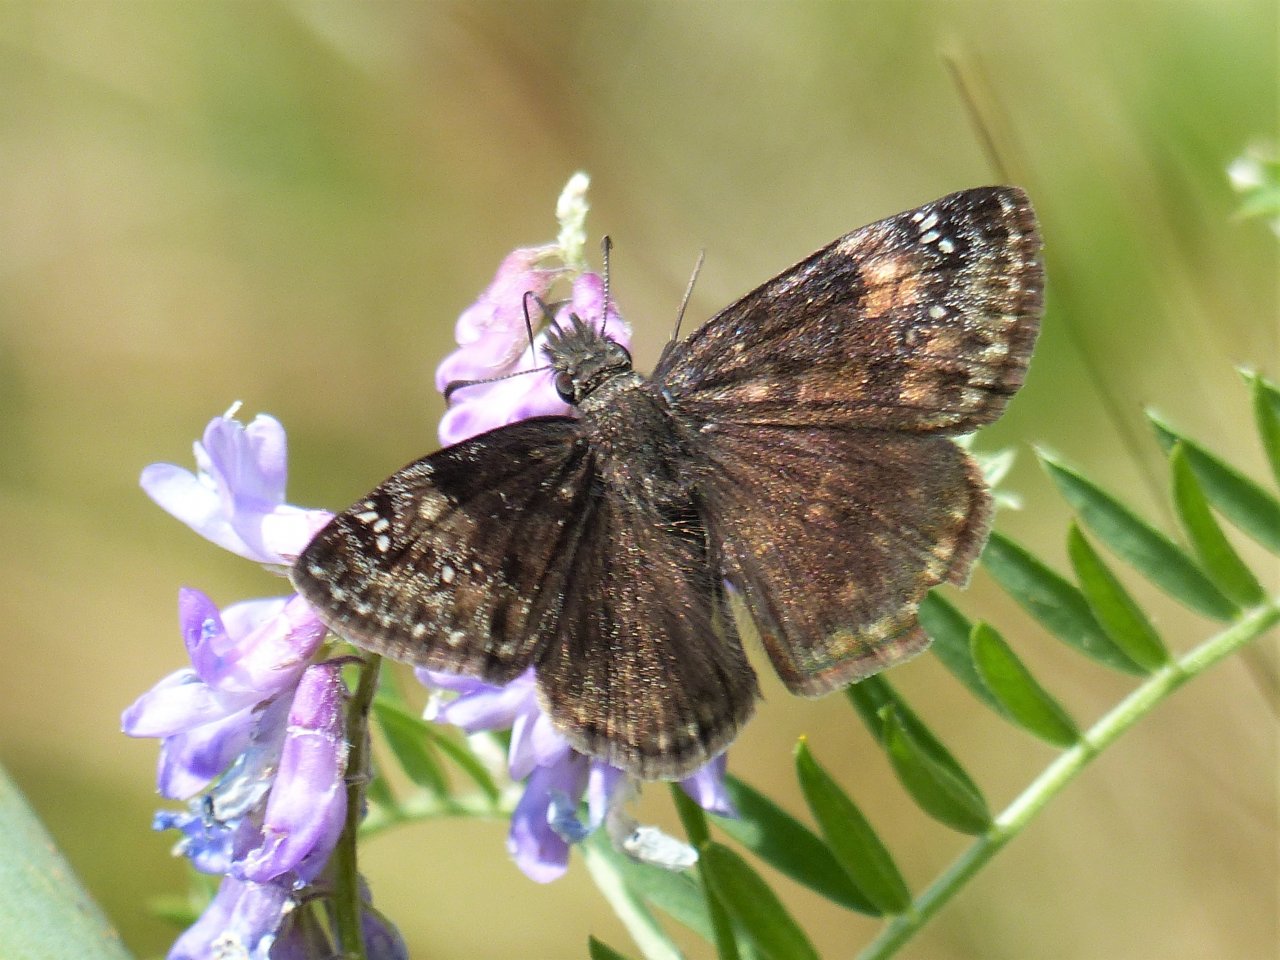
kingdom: Animalia
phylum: Arthropoda
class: Insecta
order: Lepidoptera
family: Hesperiidae
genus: Gesta
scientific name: Gesta
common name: Columbine Duskywing
